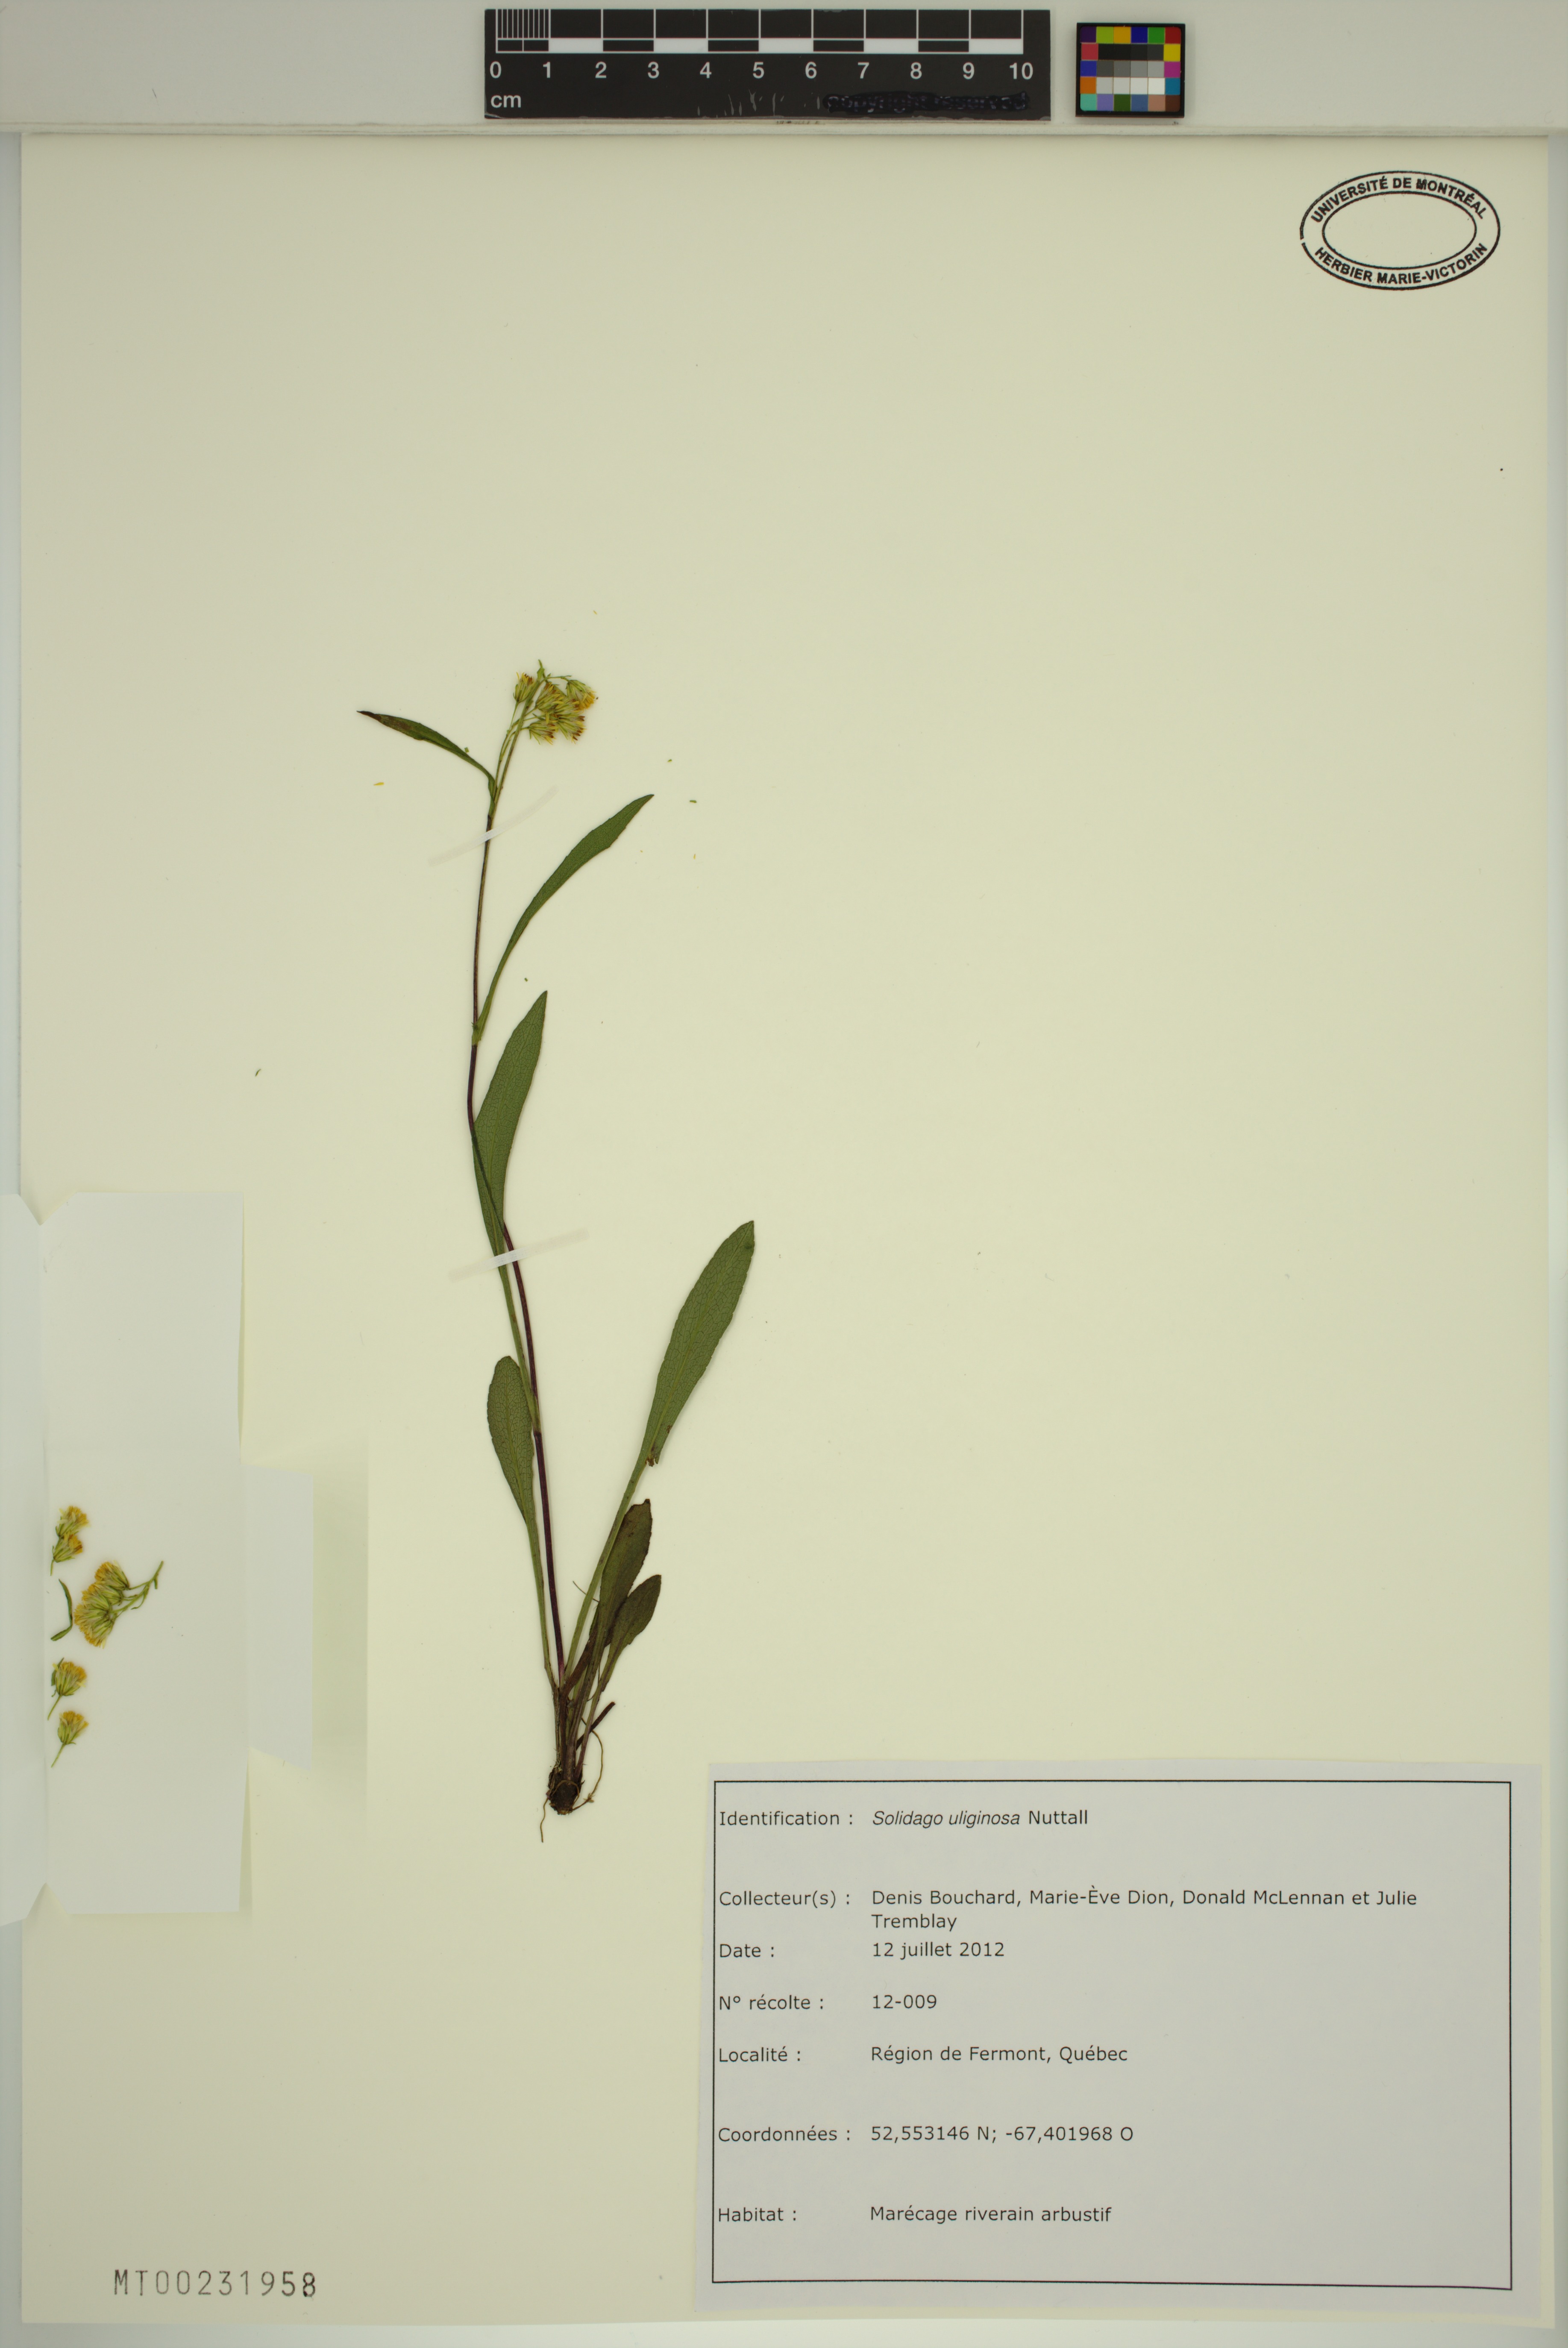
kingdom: Plantae
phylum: Tracheophyta
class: Magnoliopsida
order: Asterales
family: Asteraceae
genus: Solidago
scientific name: Solidago uliginosa
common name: Bog goldenrod
